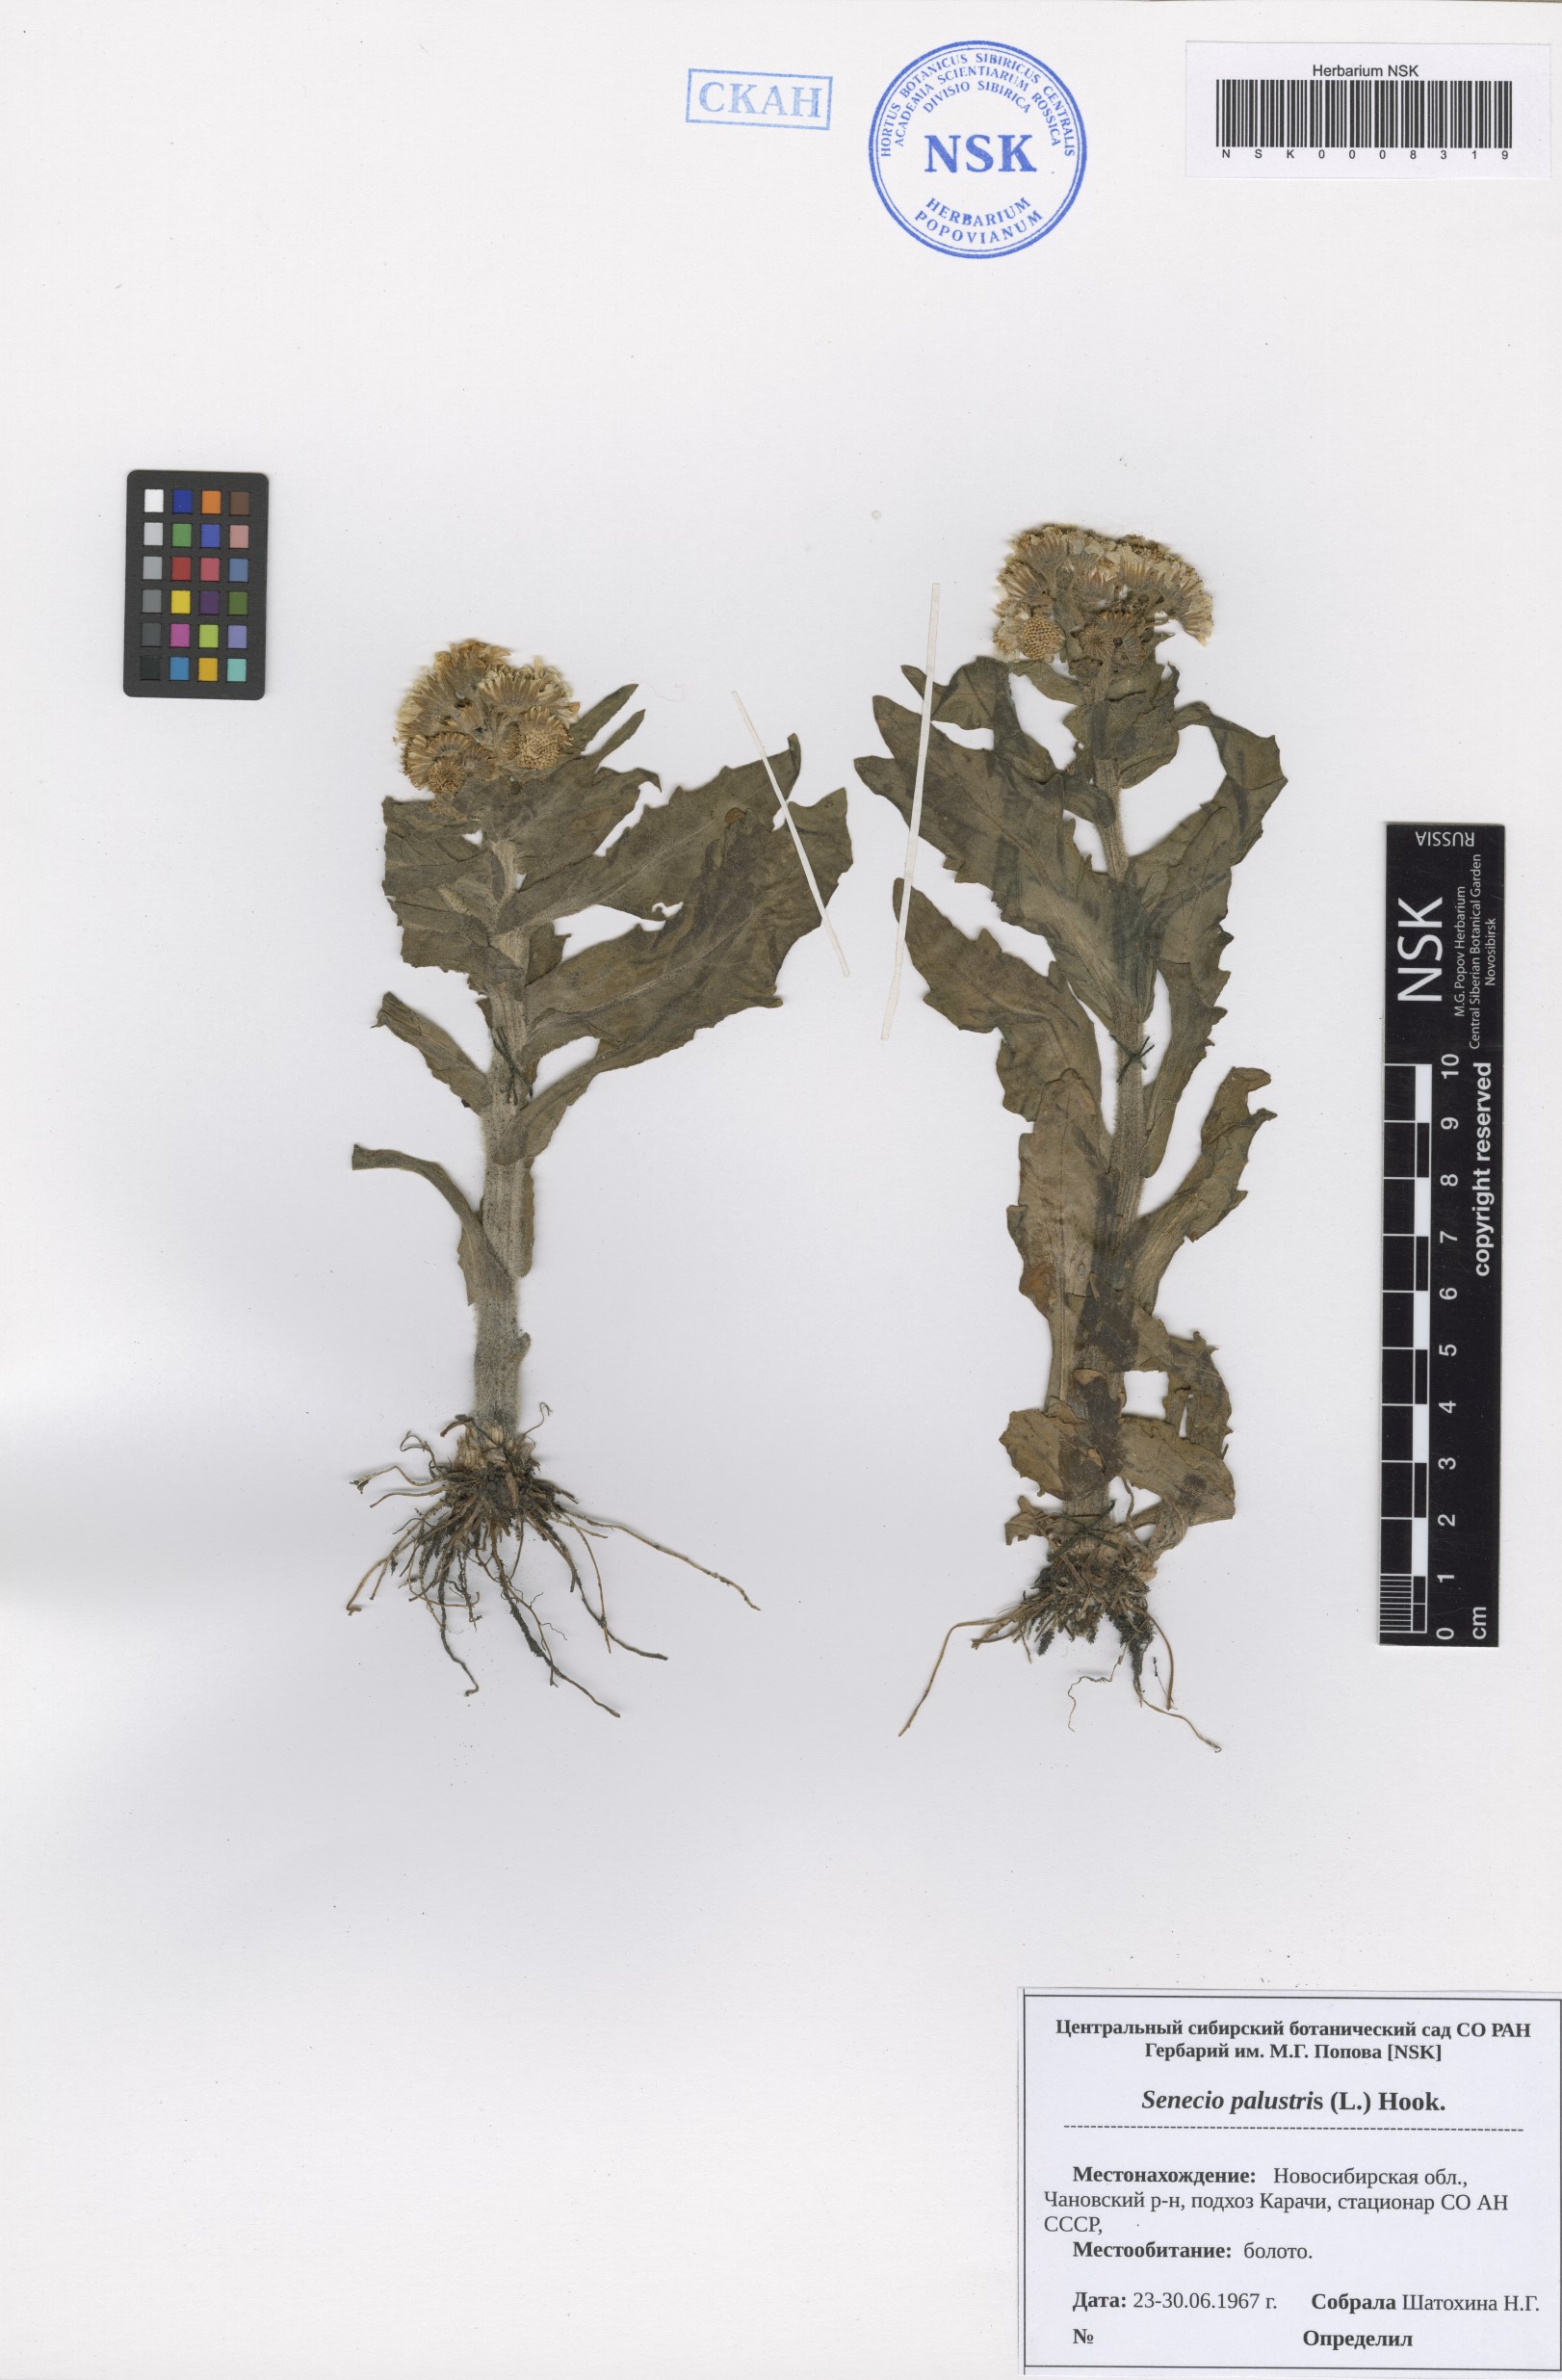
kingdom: Plantae
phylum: Tracheophyta
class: Magnoliopsida
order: Asterales
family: Asteraceae
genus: Tephroseris
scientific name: Tephroseris palustris
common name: Marsh fleawort
